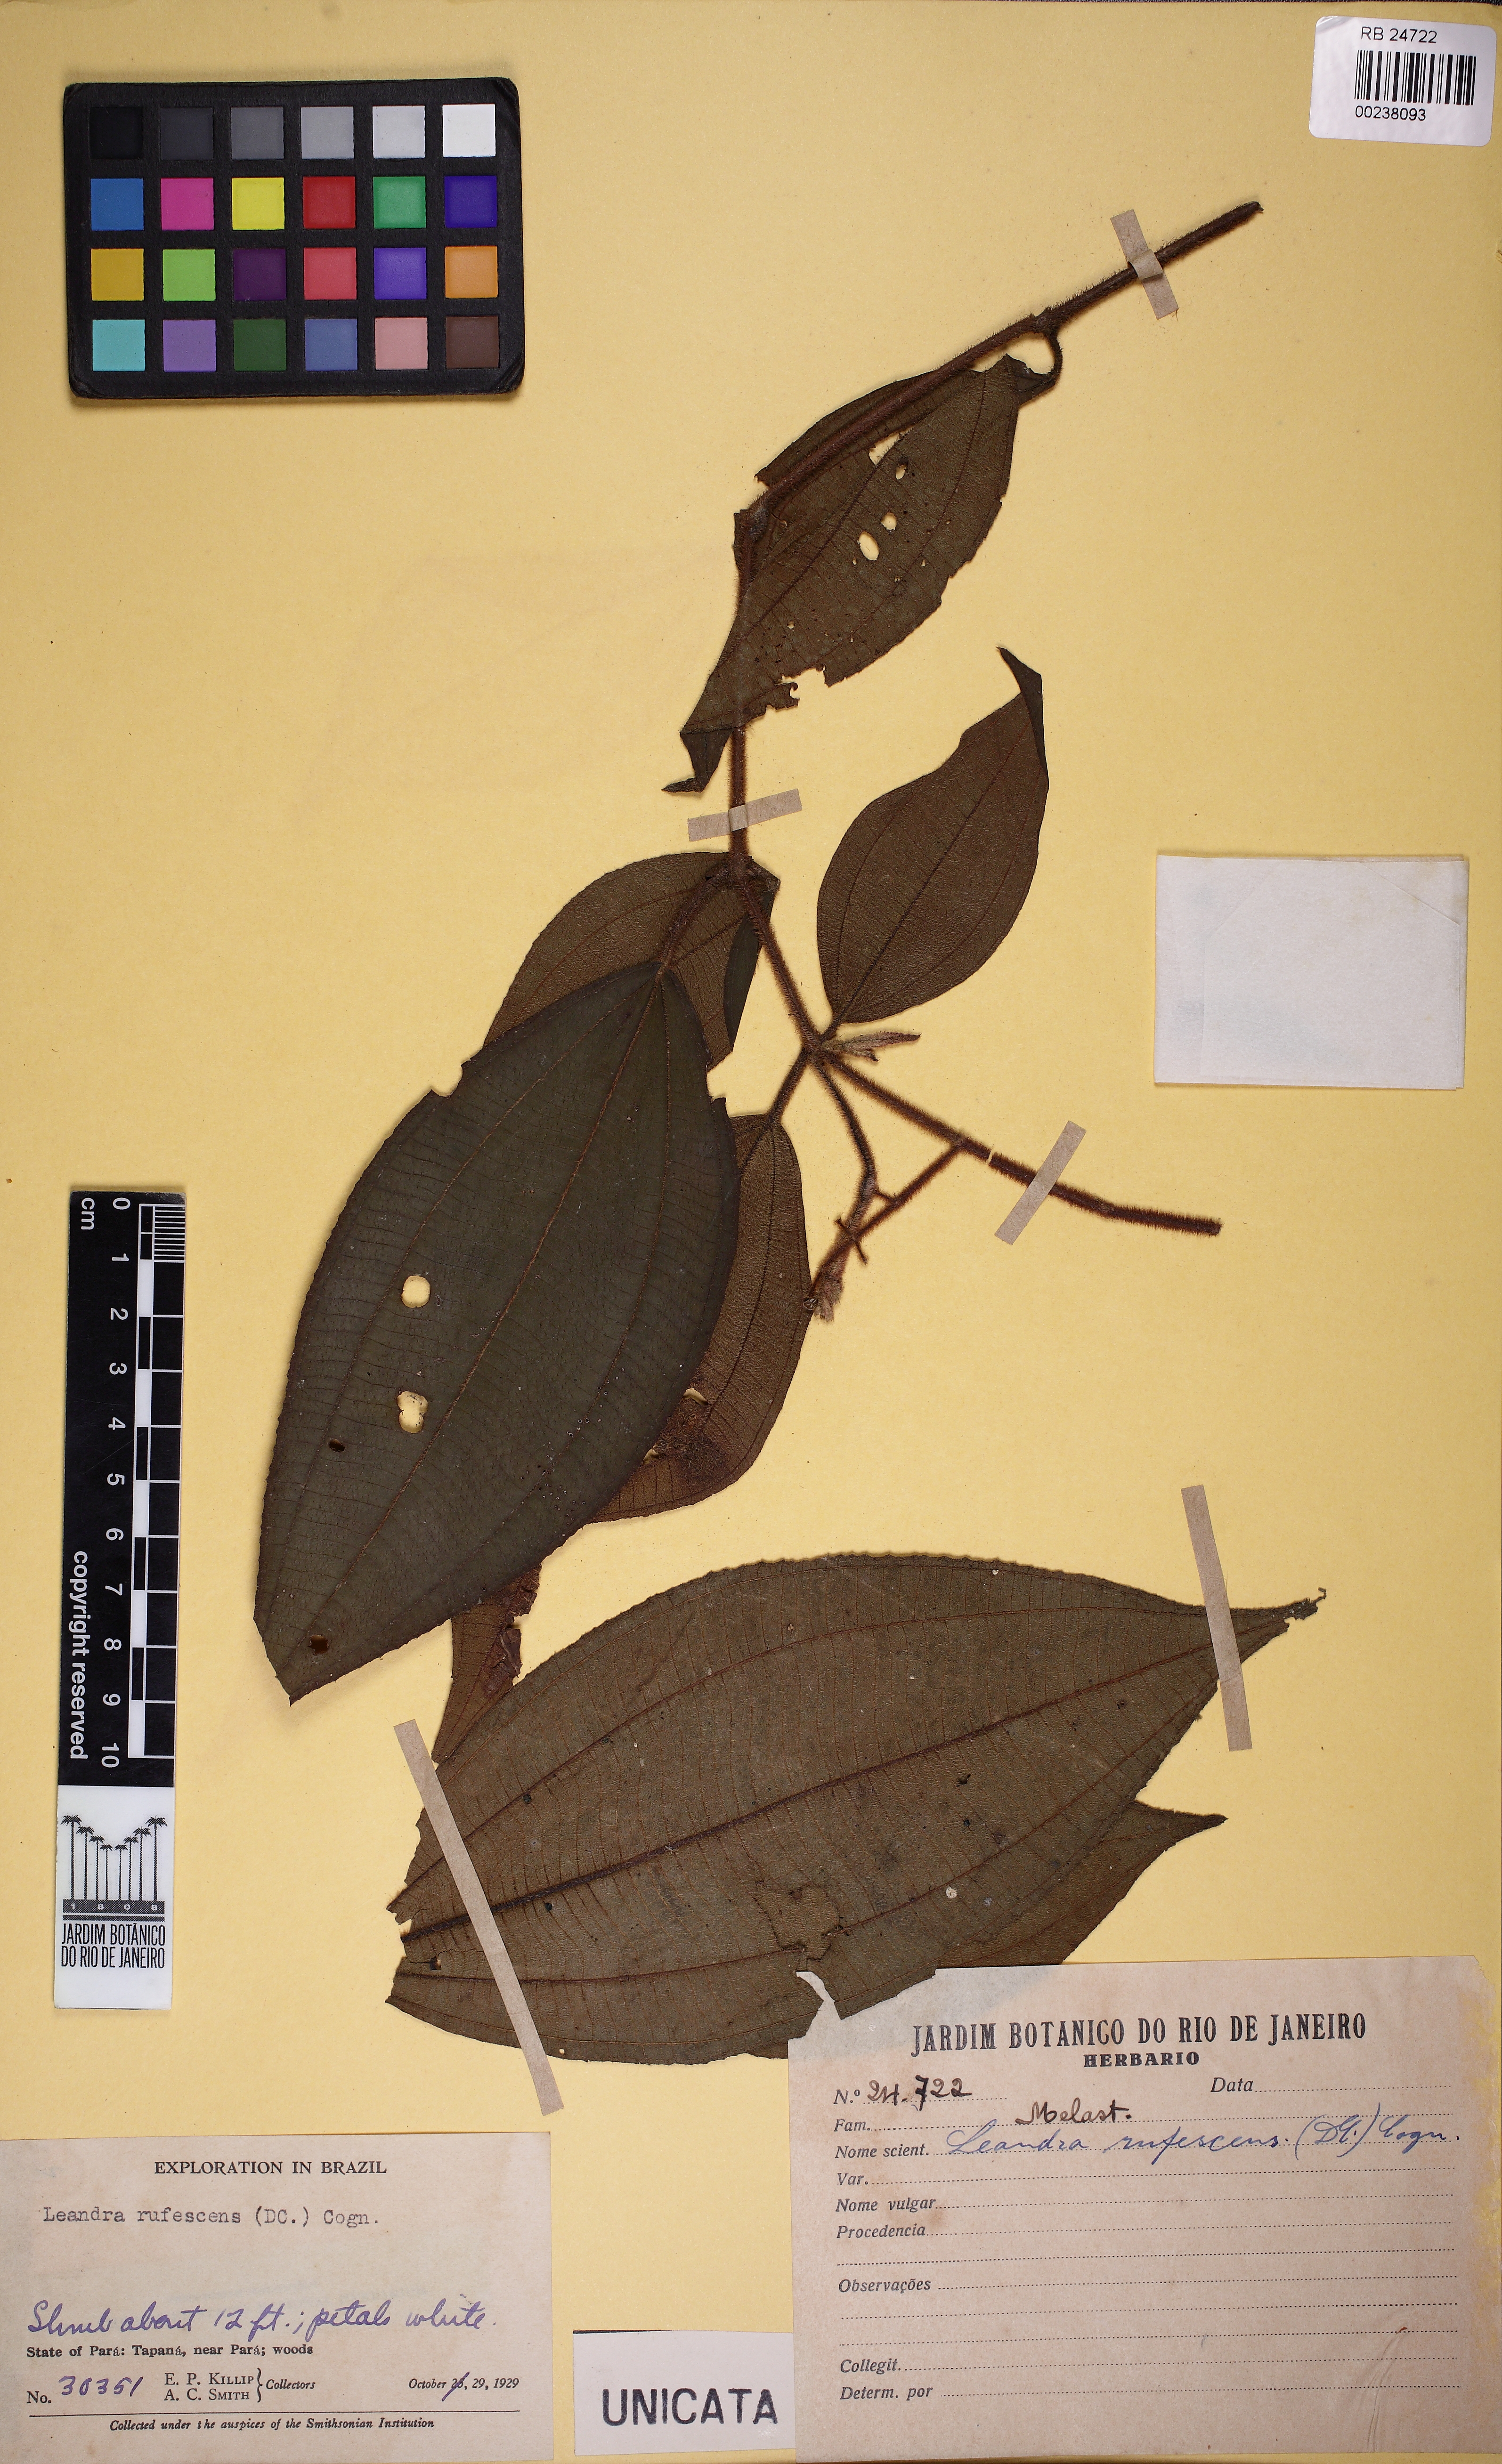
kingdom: Plantae
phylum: Tracheophyta
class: Magnoliopsida
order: Myrtales
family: Melastomataceae
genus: Miconia
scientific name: Miconia asperiuscula
